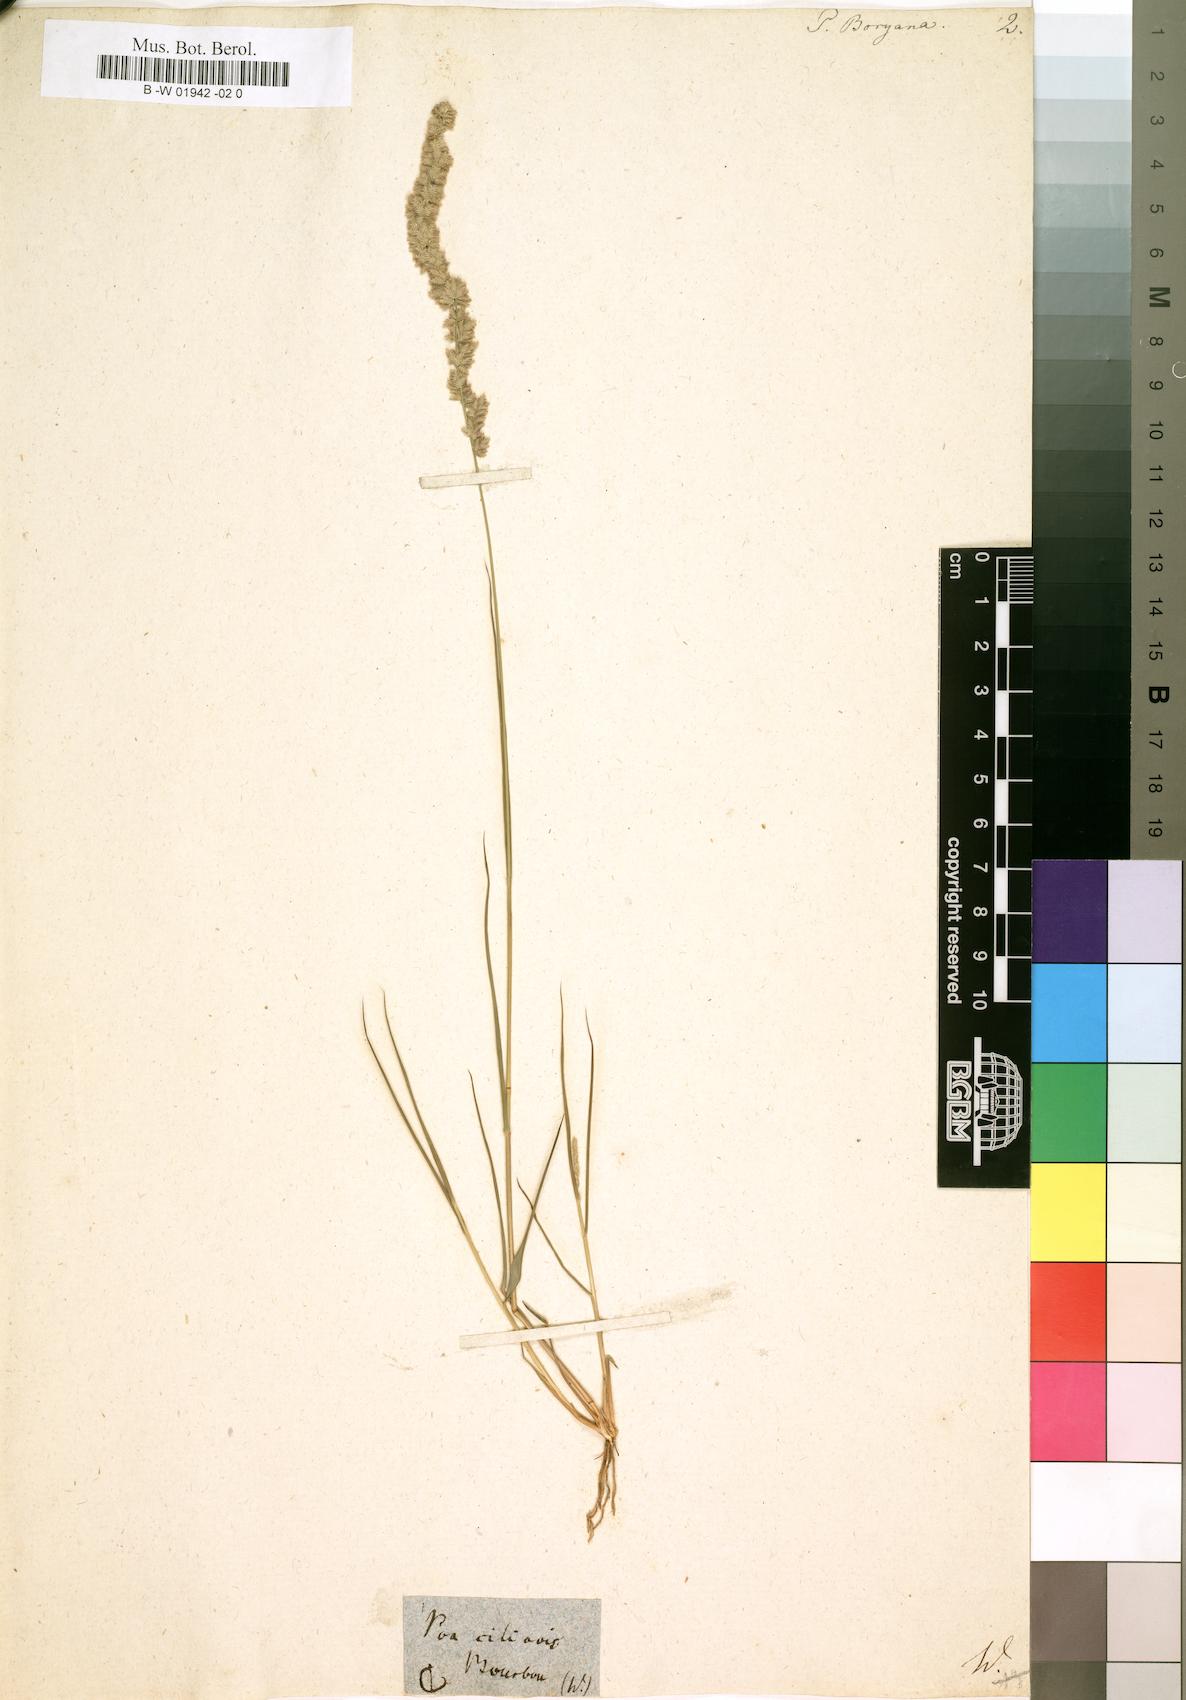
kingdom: Plantae
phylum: Tracheophyta
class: Liliopsida
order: Poales
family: Poaceae
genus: Eragrostis
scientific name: Eragrostis ciliaris
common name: Gophertail lovegrass
